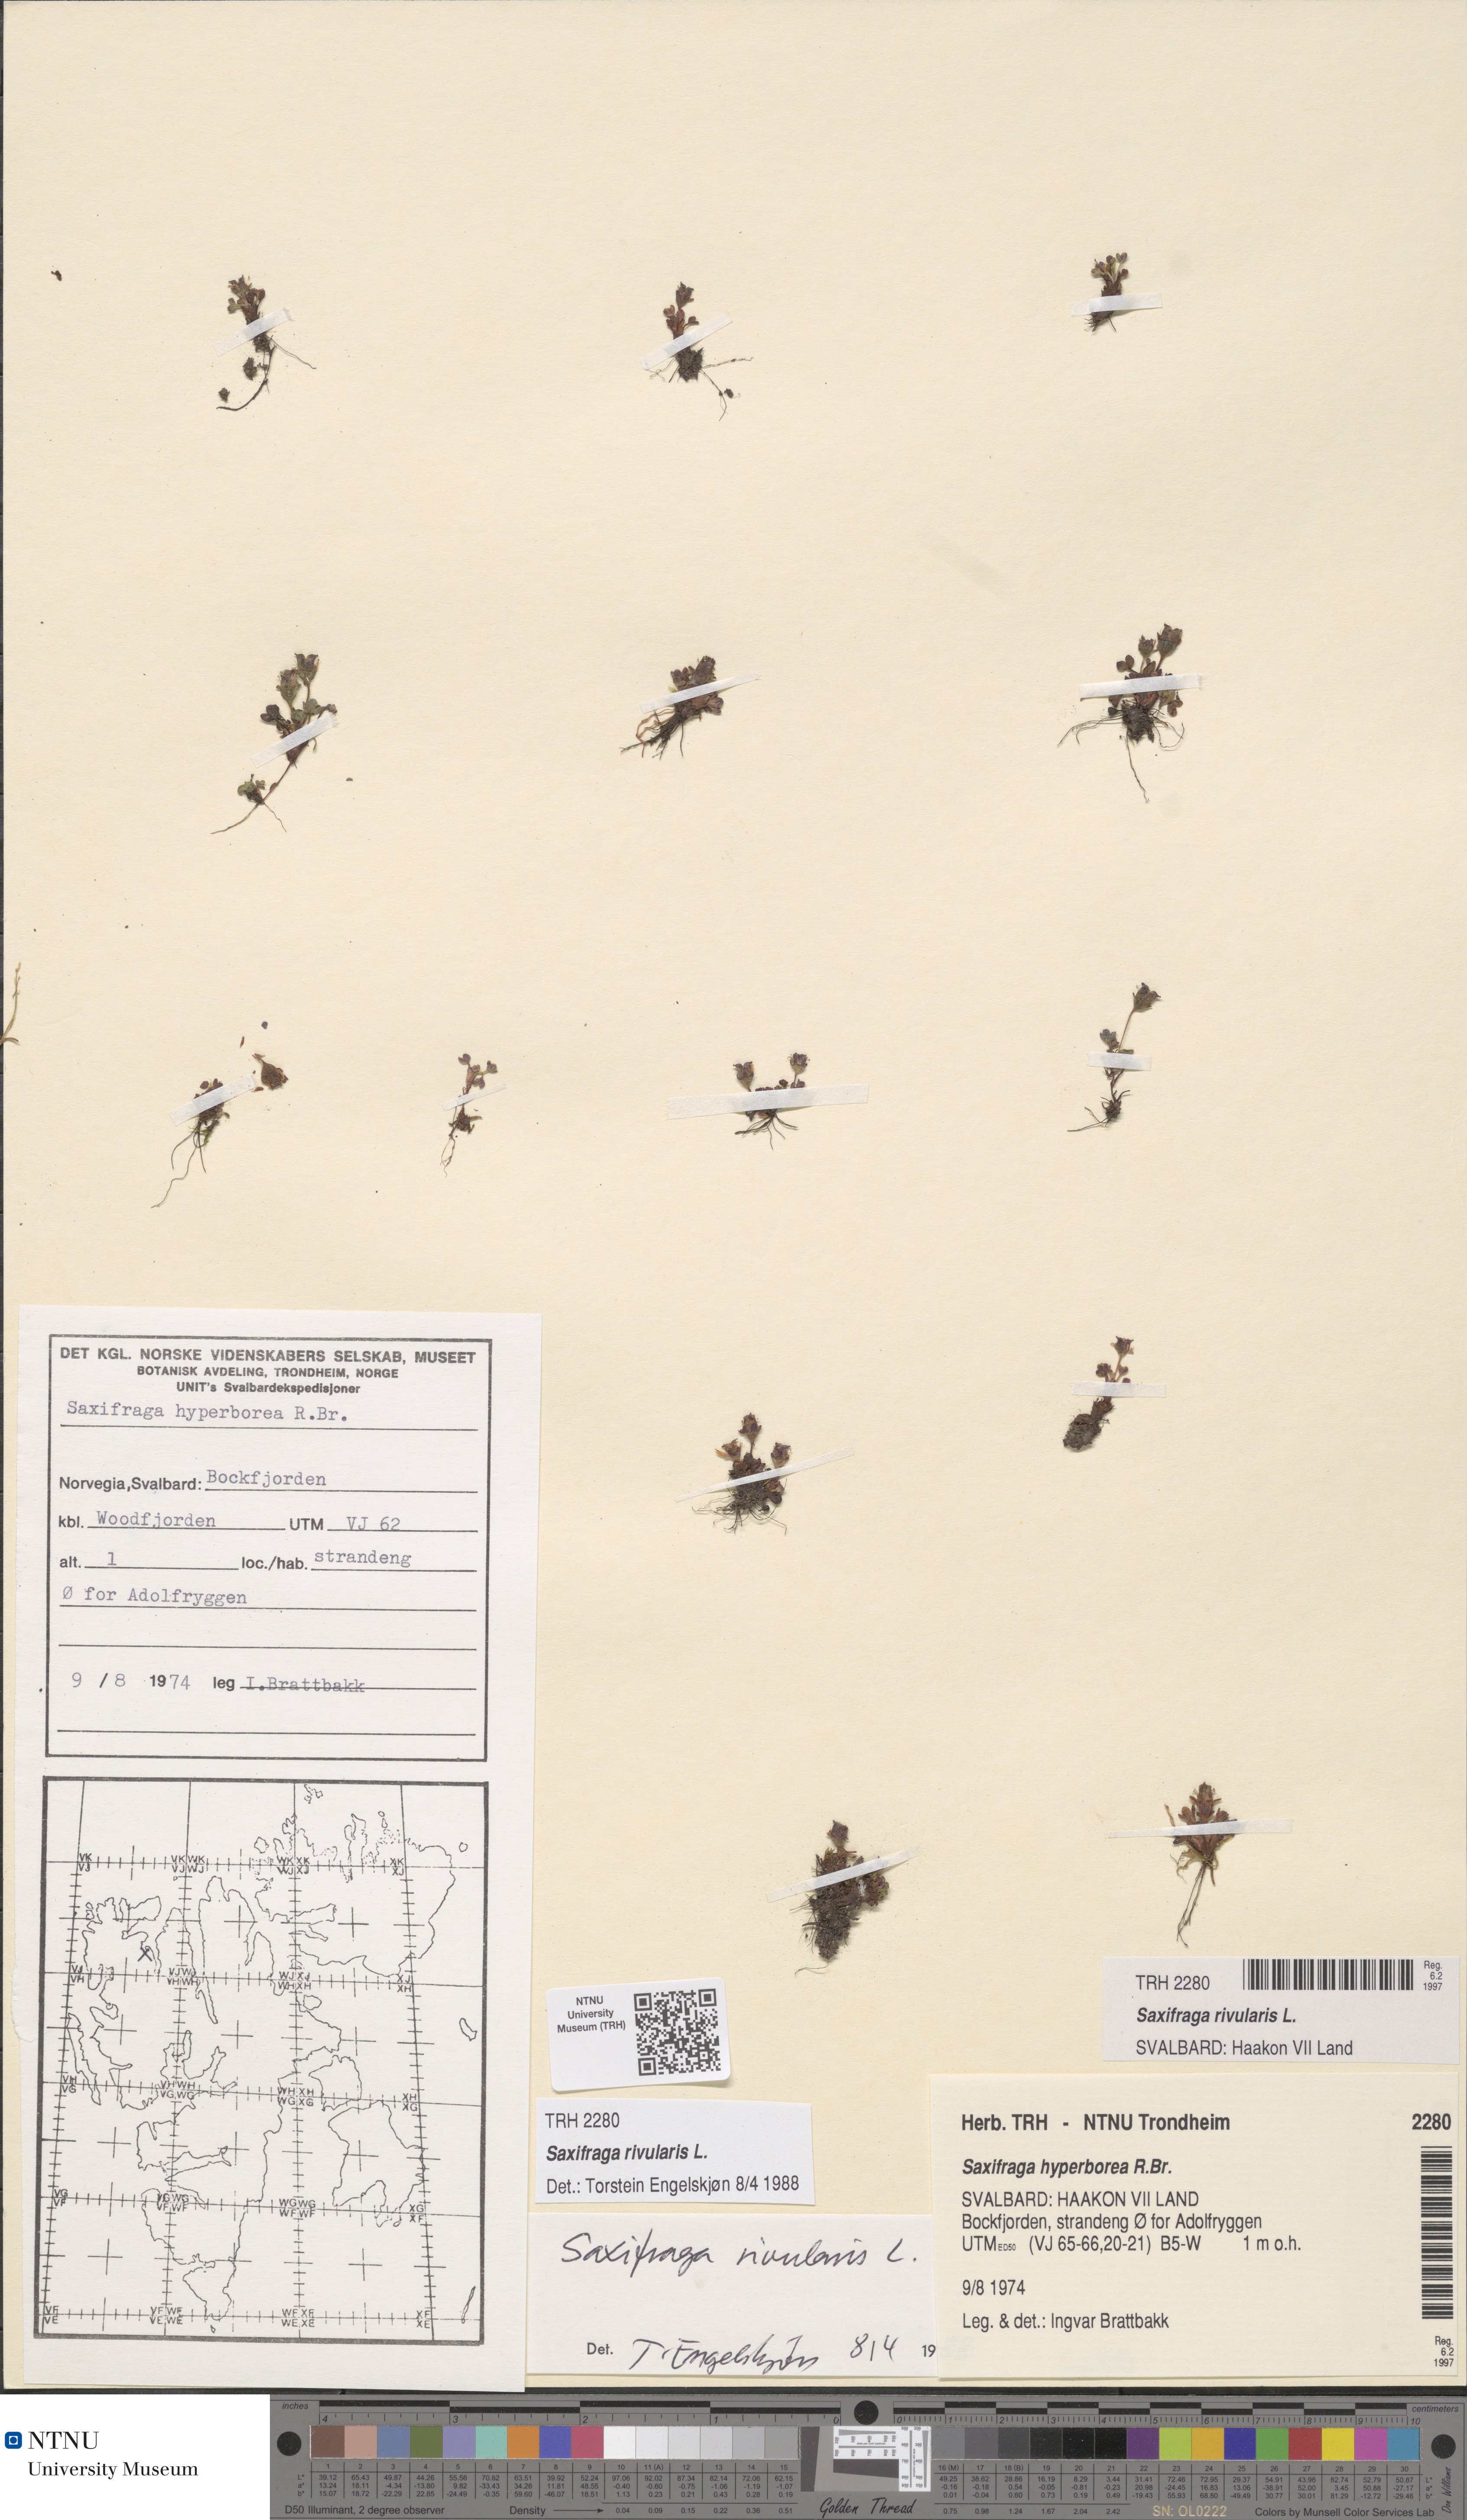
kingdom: Plantae
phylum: Tracheophyta
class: Magnoliopsida
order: Saxifragales
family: Saxifragaceae
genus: Saxifraga
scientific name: Saxifraga rivularis
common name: Highland saxifrage
